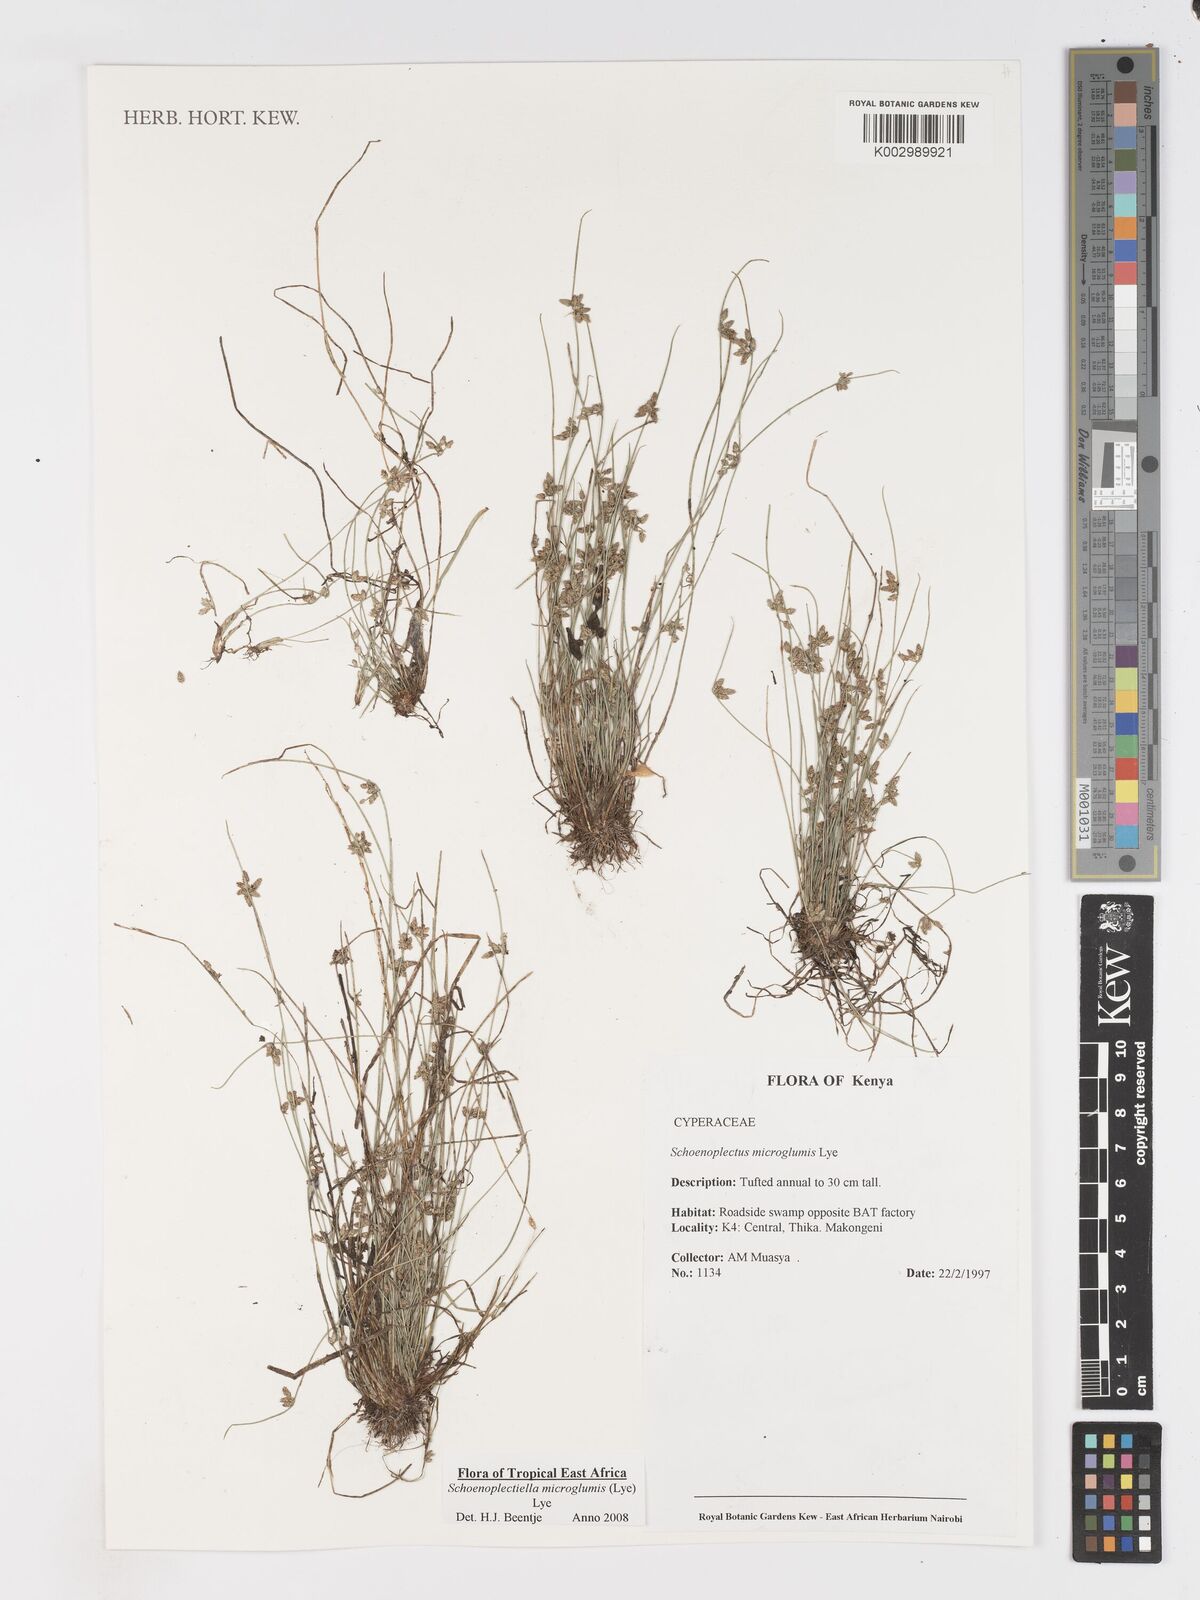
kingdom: Plantae
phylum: Tracheophyta
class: Liliopsida
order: Poales
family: Cyperaceae
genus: Schoenoplectiella
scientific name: Schoenoplectiella microglumis
